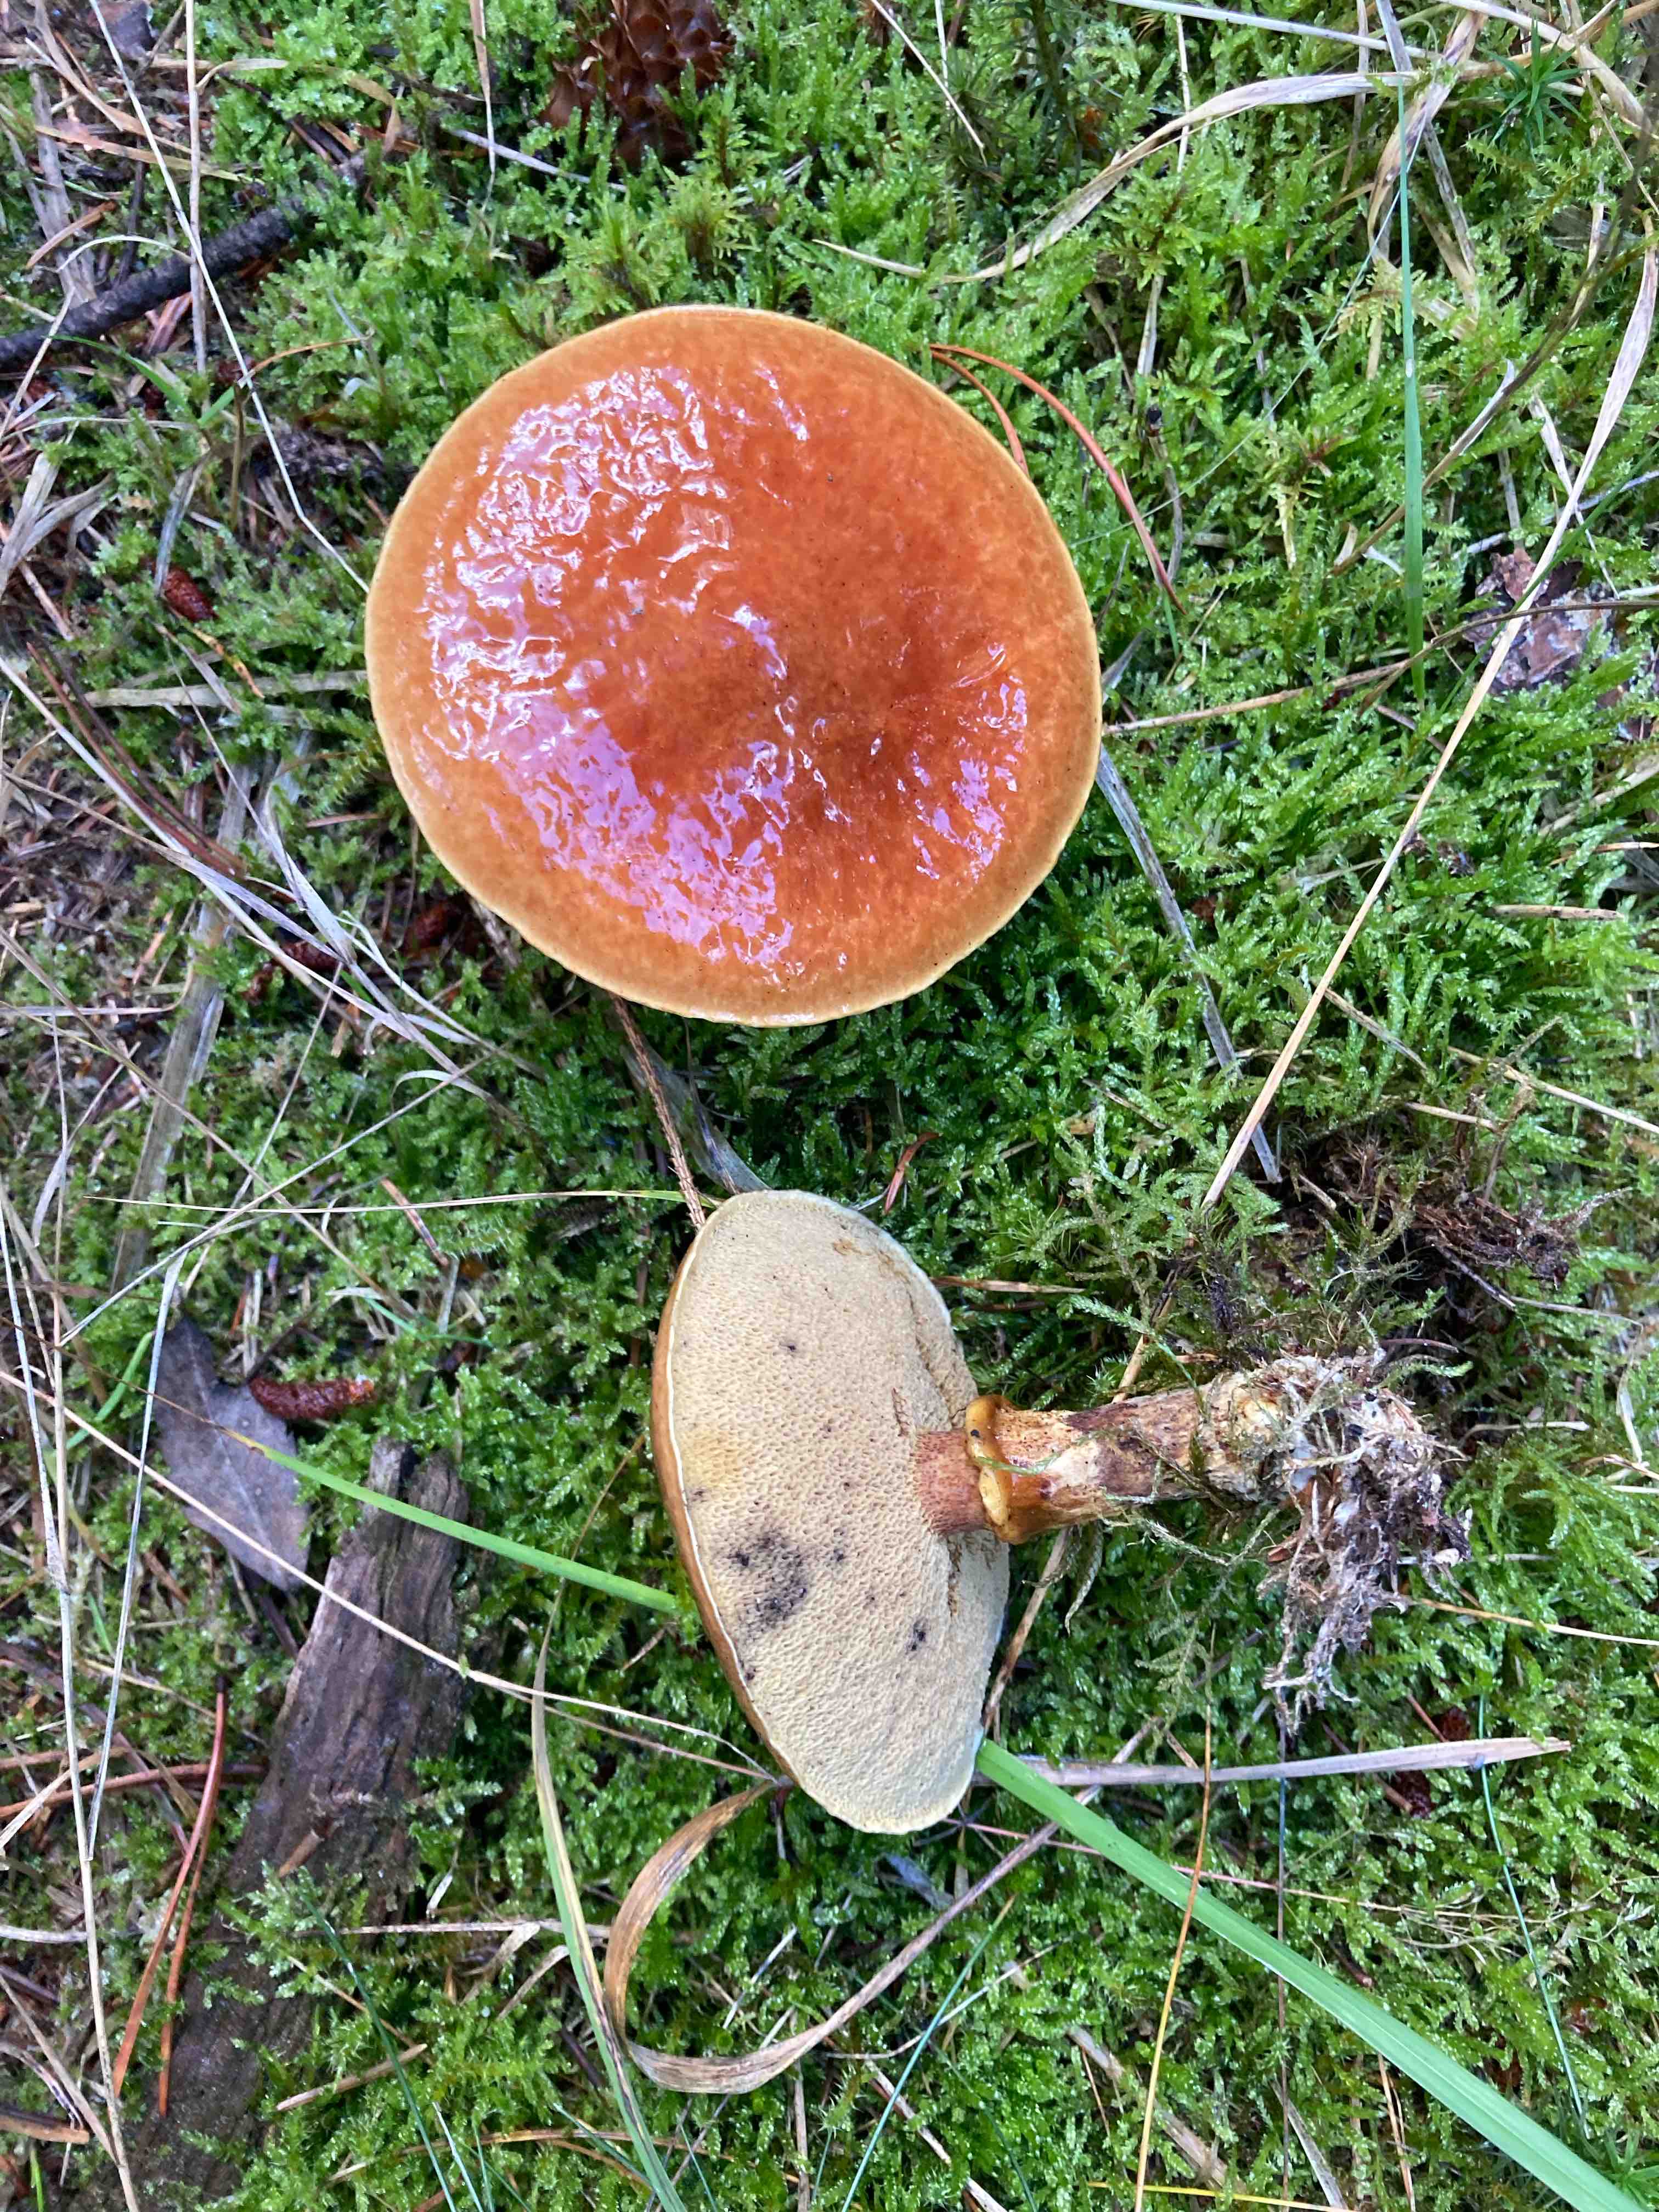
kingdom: Fungi
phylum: Basidiomycota
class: Agaricomycetes
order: Boletales
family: Suillaceae
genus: Suillus
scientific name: Suillus grevillei
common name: lærke-slimrørhat
